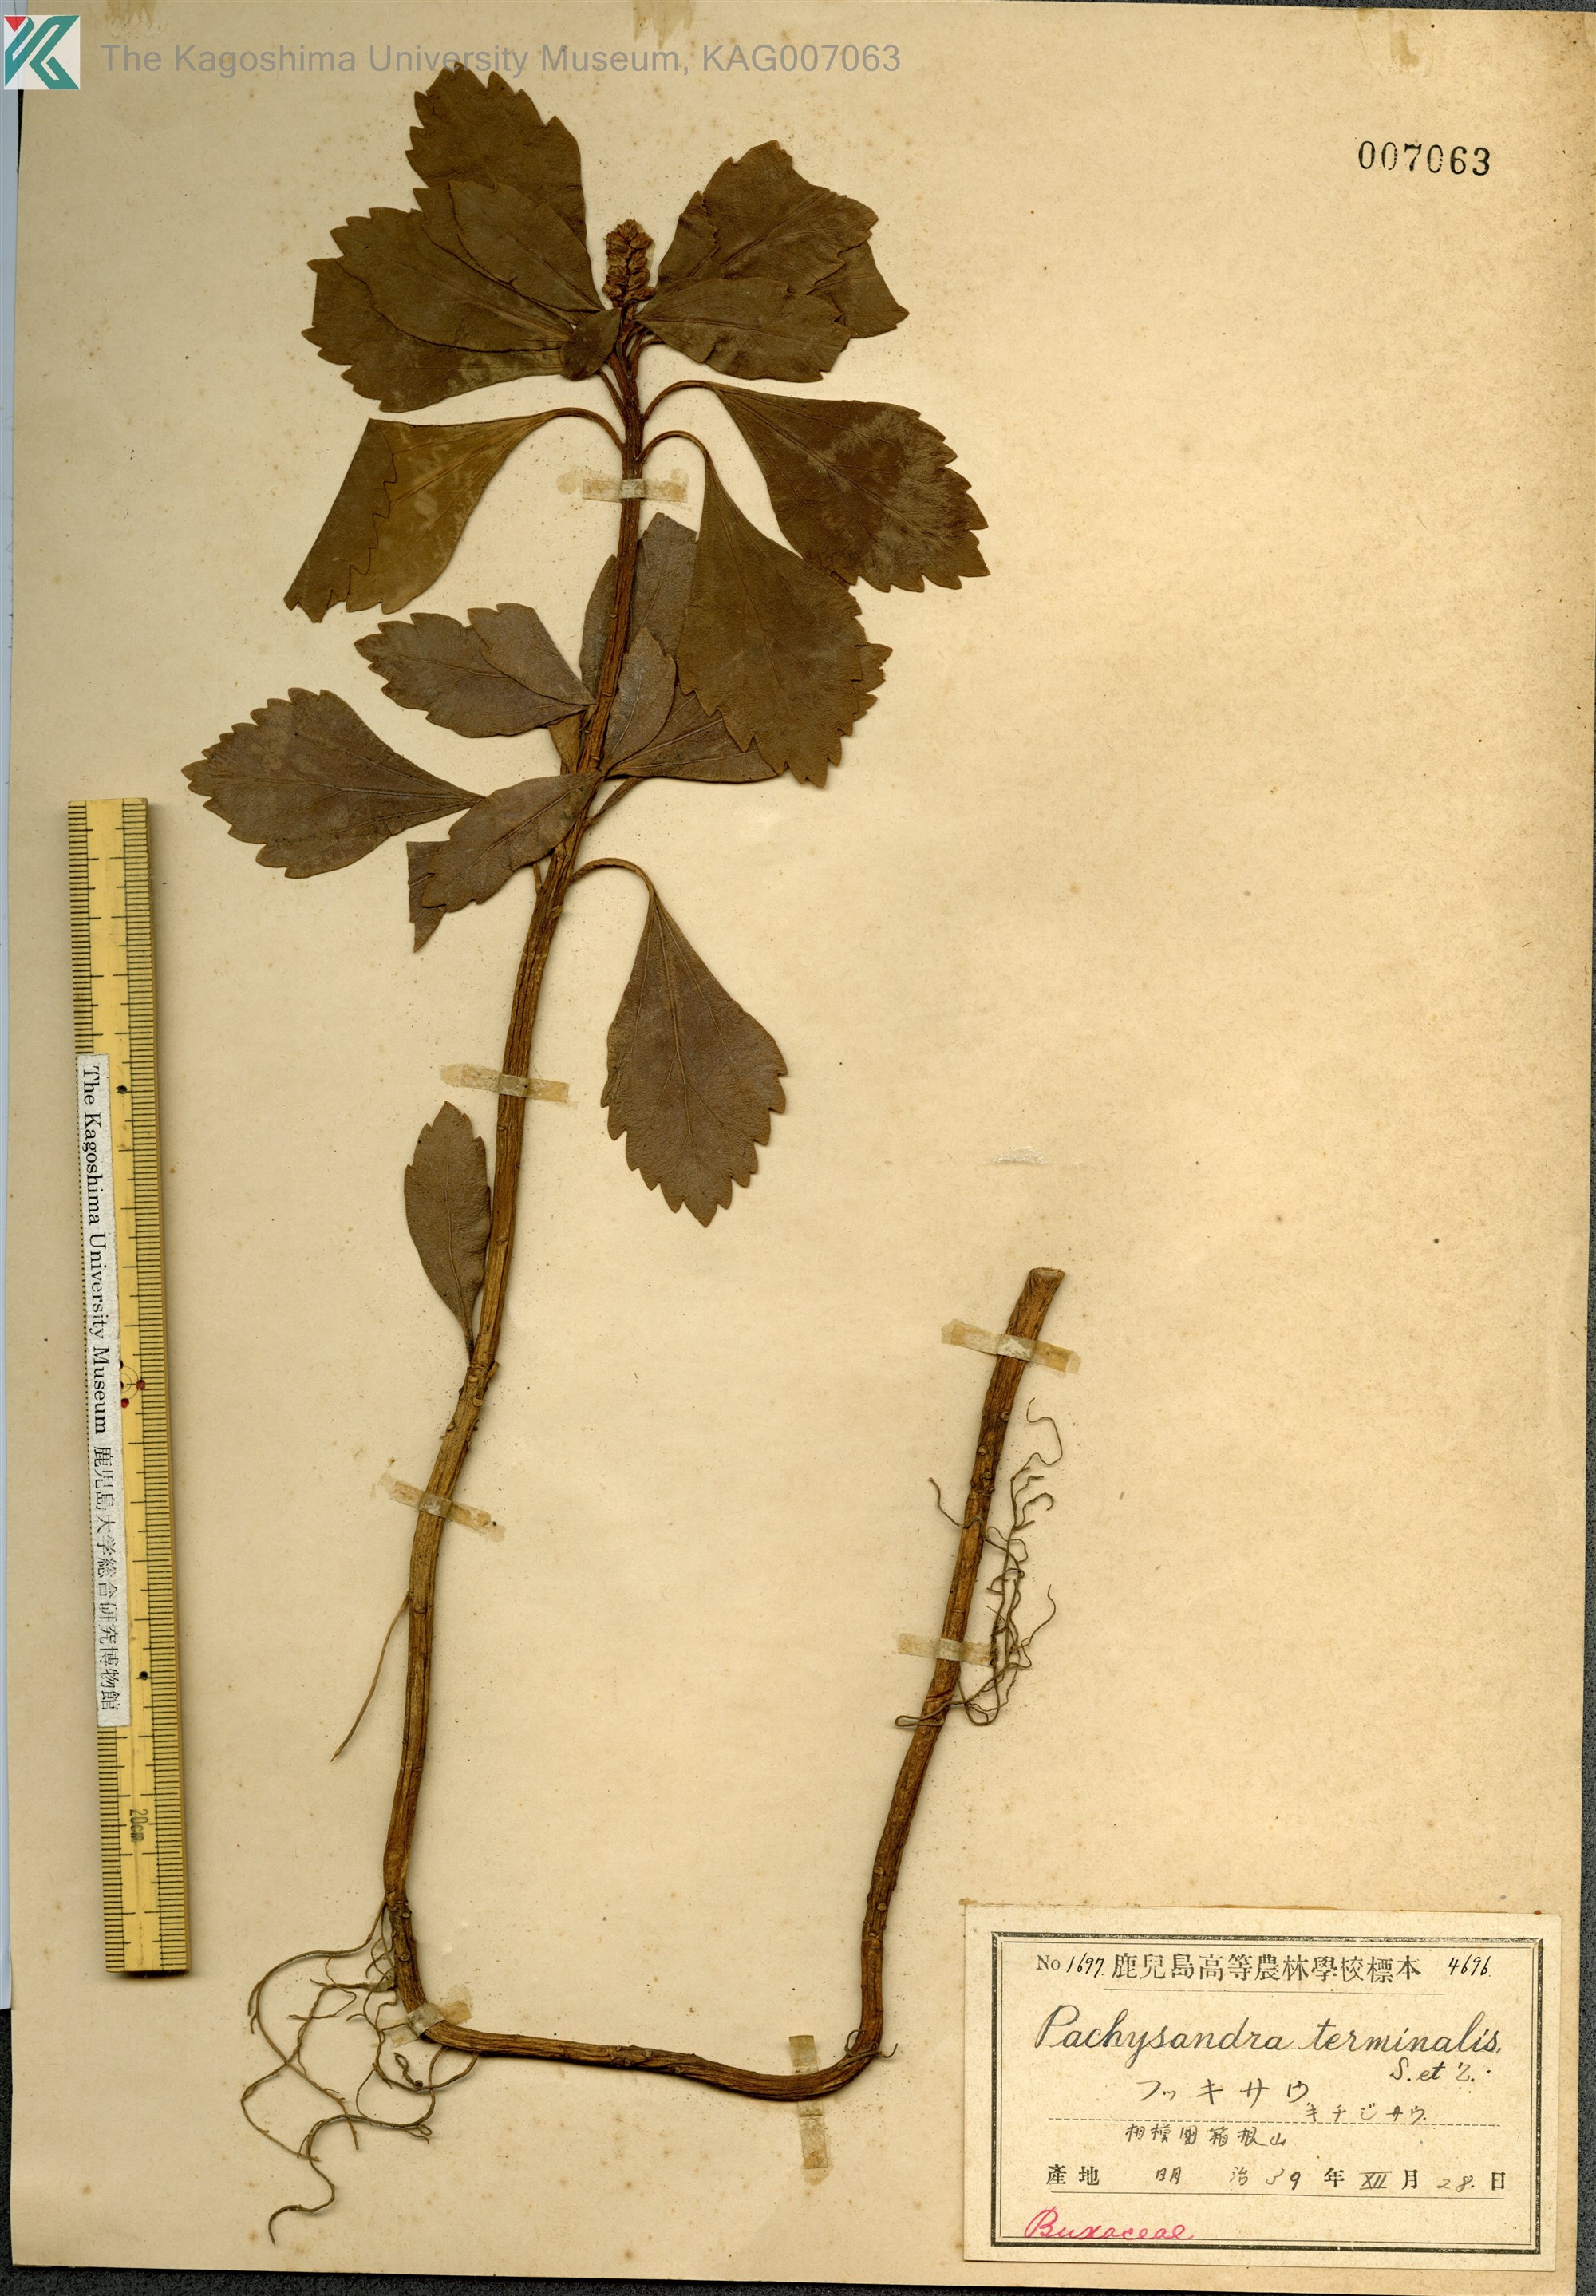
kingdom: Plantae
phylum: Tracheophyta
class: Magnoliopsida
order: Buxales
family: Buxaceae
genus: Pachysandra
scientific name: Pachysandra terminalis
